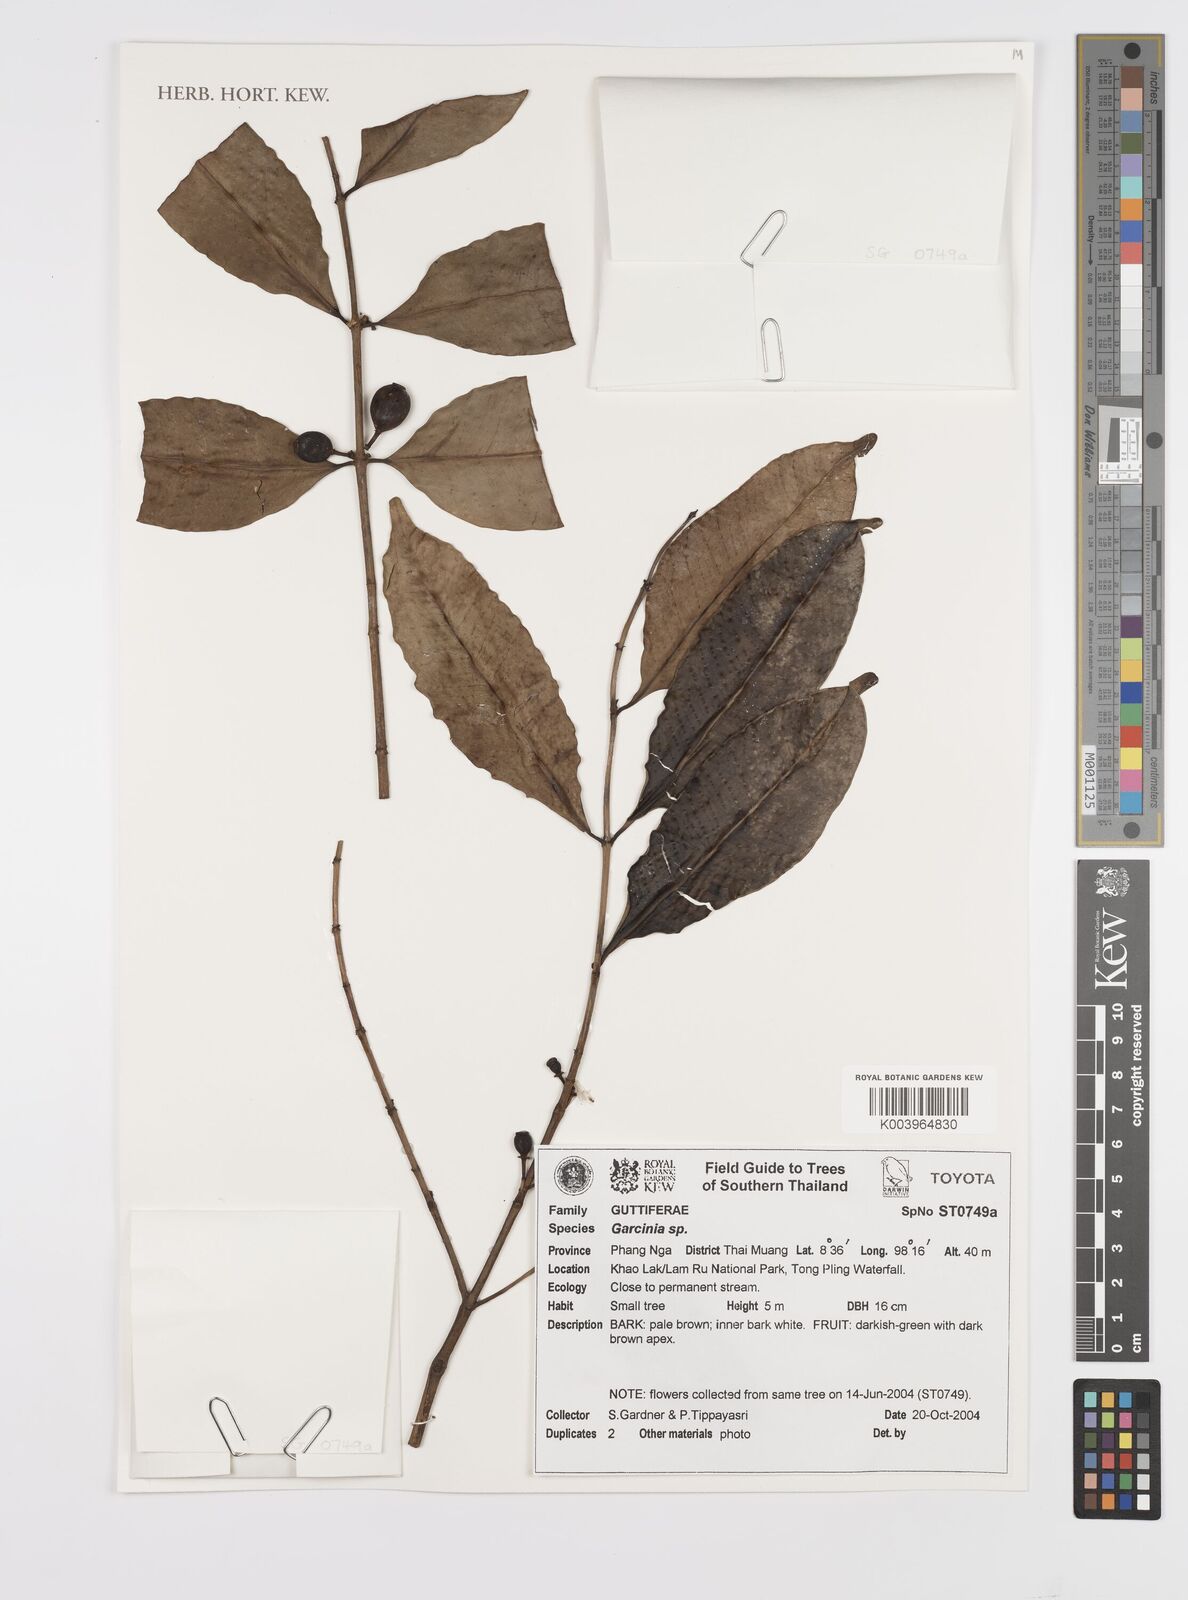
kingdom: Plantae
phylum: Tracheophyta
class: Magnoliopsida
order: Malpighiales
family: Clusiaceae
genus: Garcinia
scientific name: Garcinia
